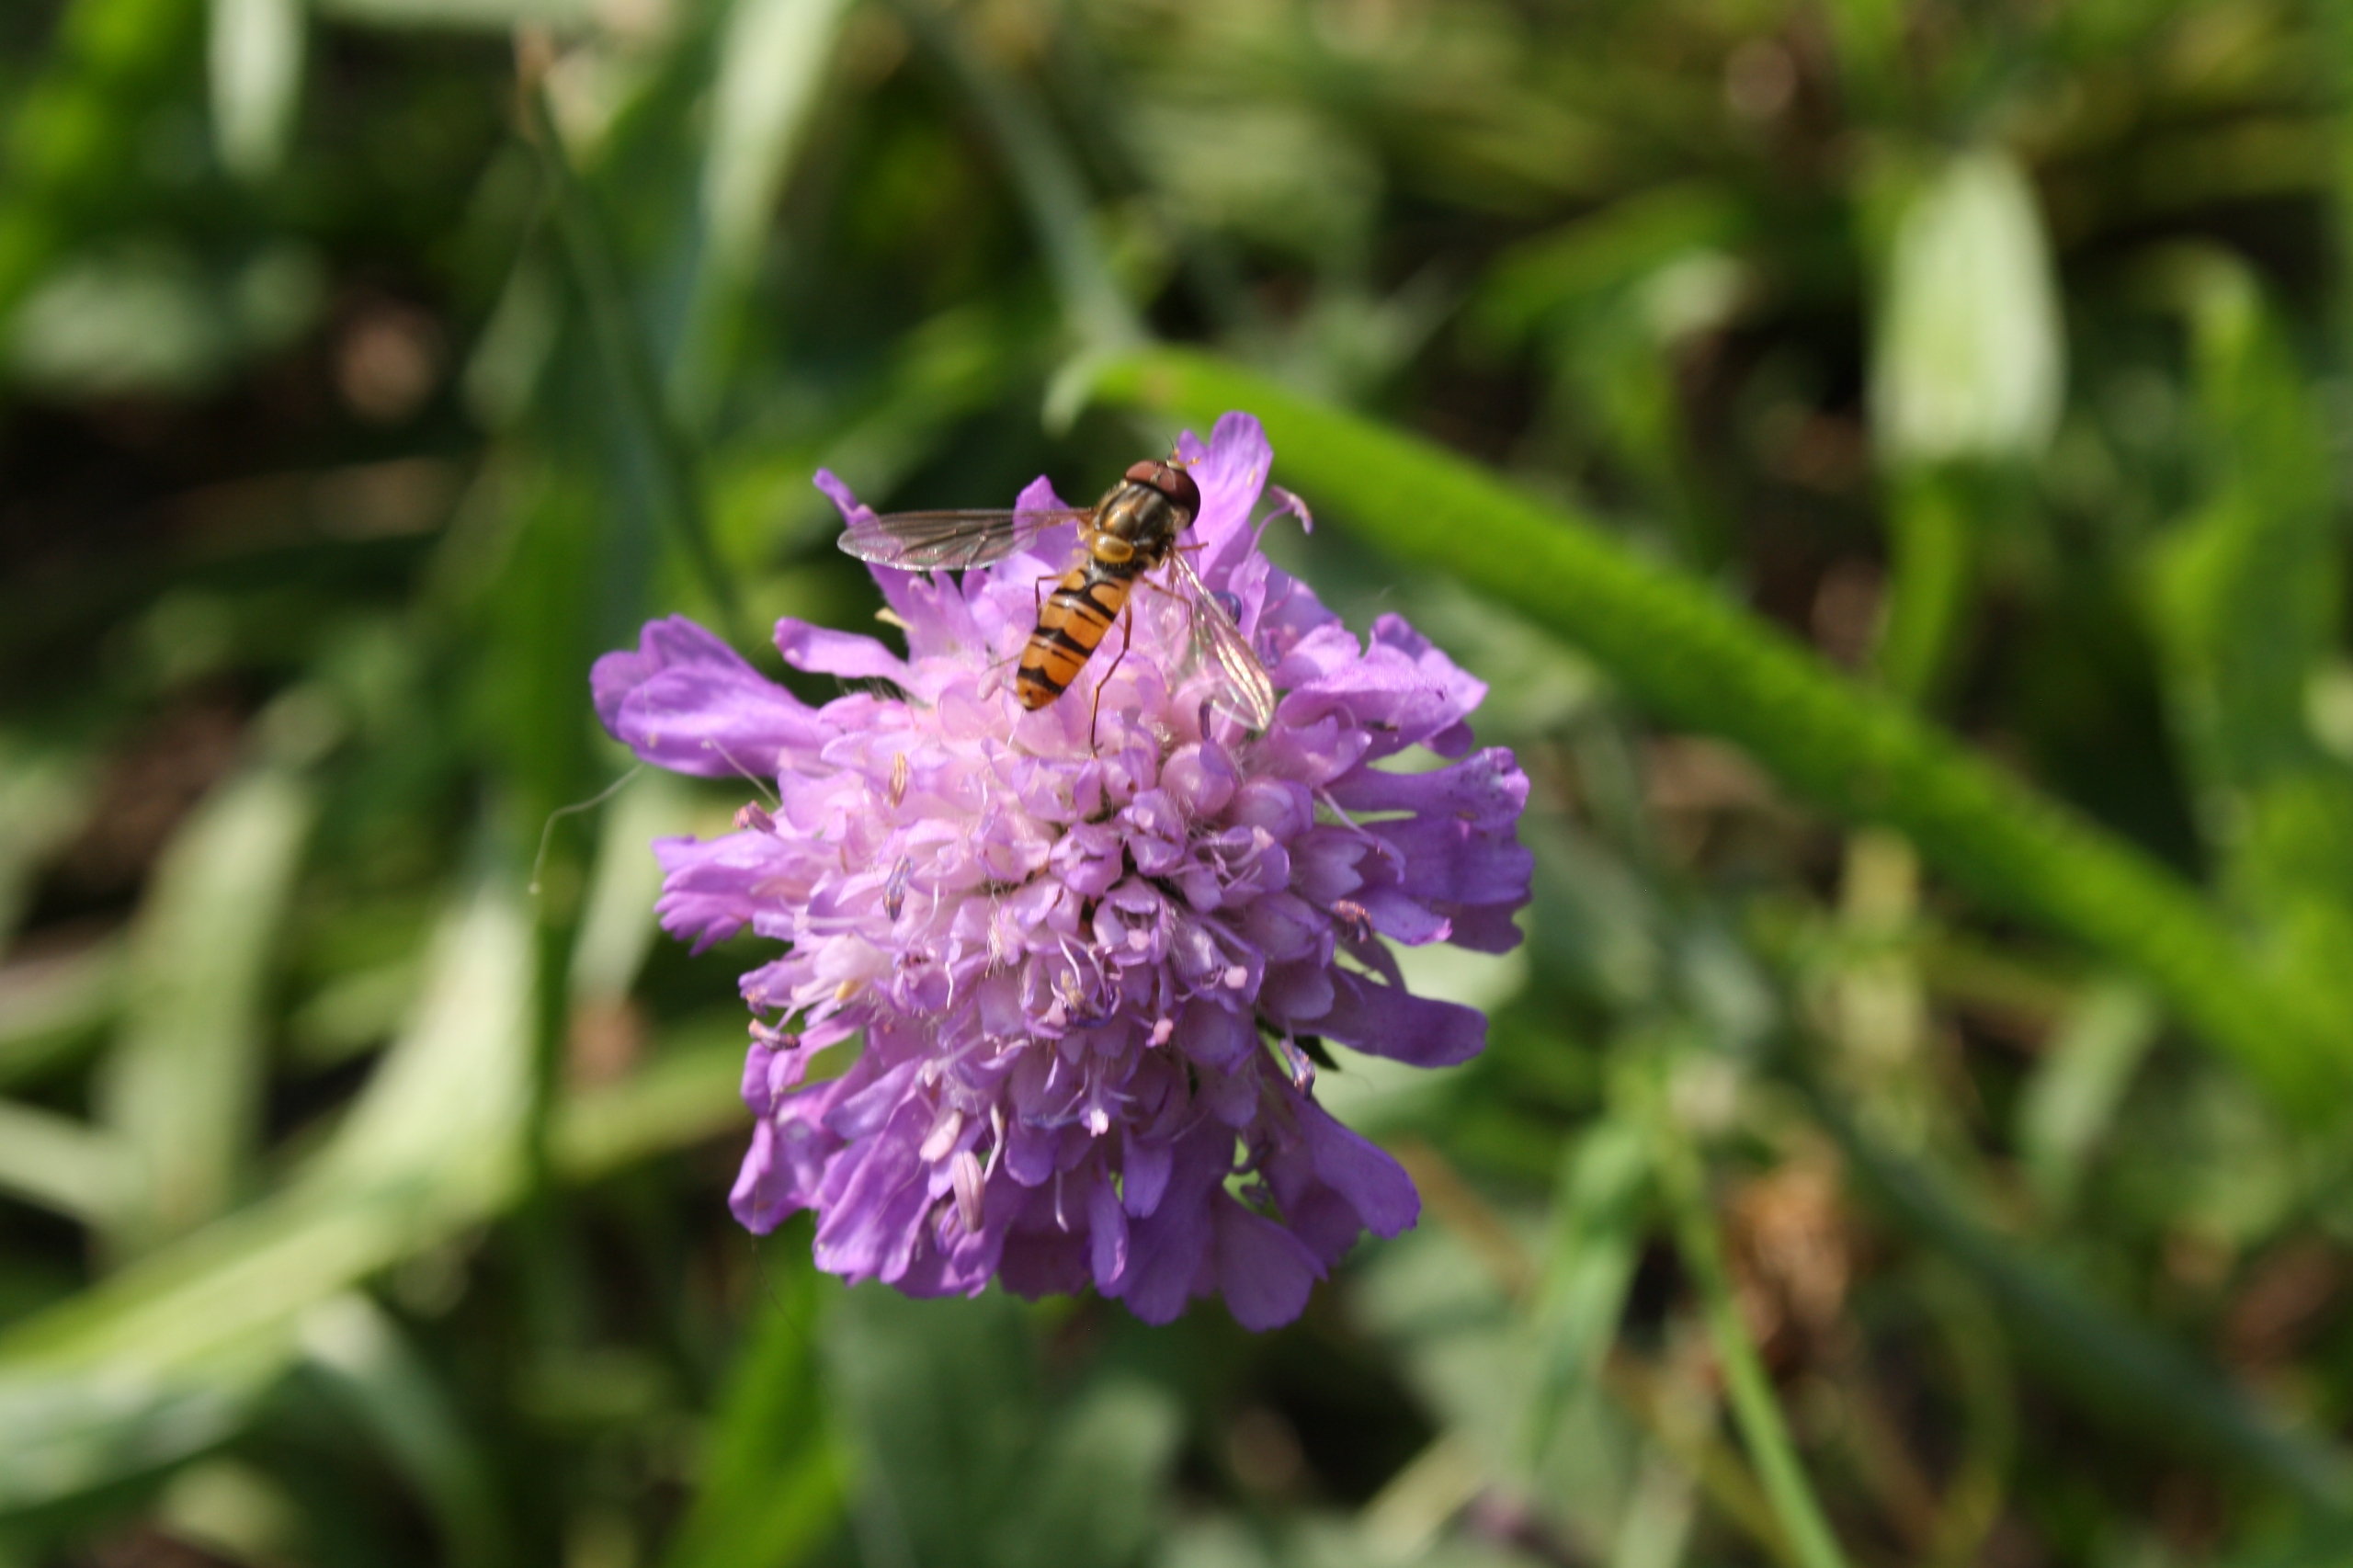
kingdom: Animalia
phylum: Arthropoda
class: Insecta
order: Diptera
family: Syrphidae
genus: Episyrphus
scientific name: Episyrphus balteatus
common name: Dobbeltbåndet svirreflue
